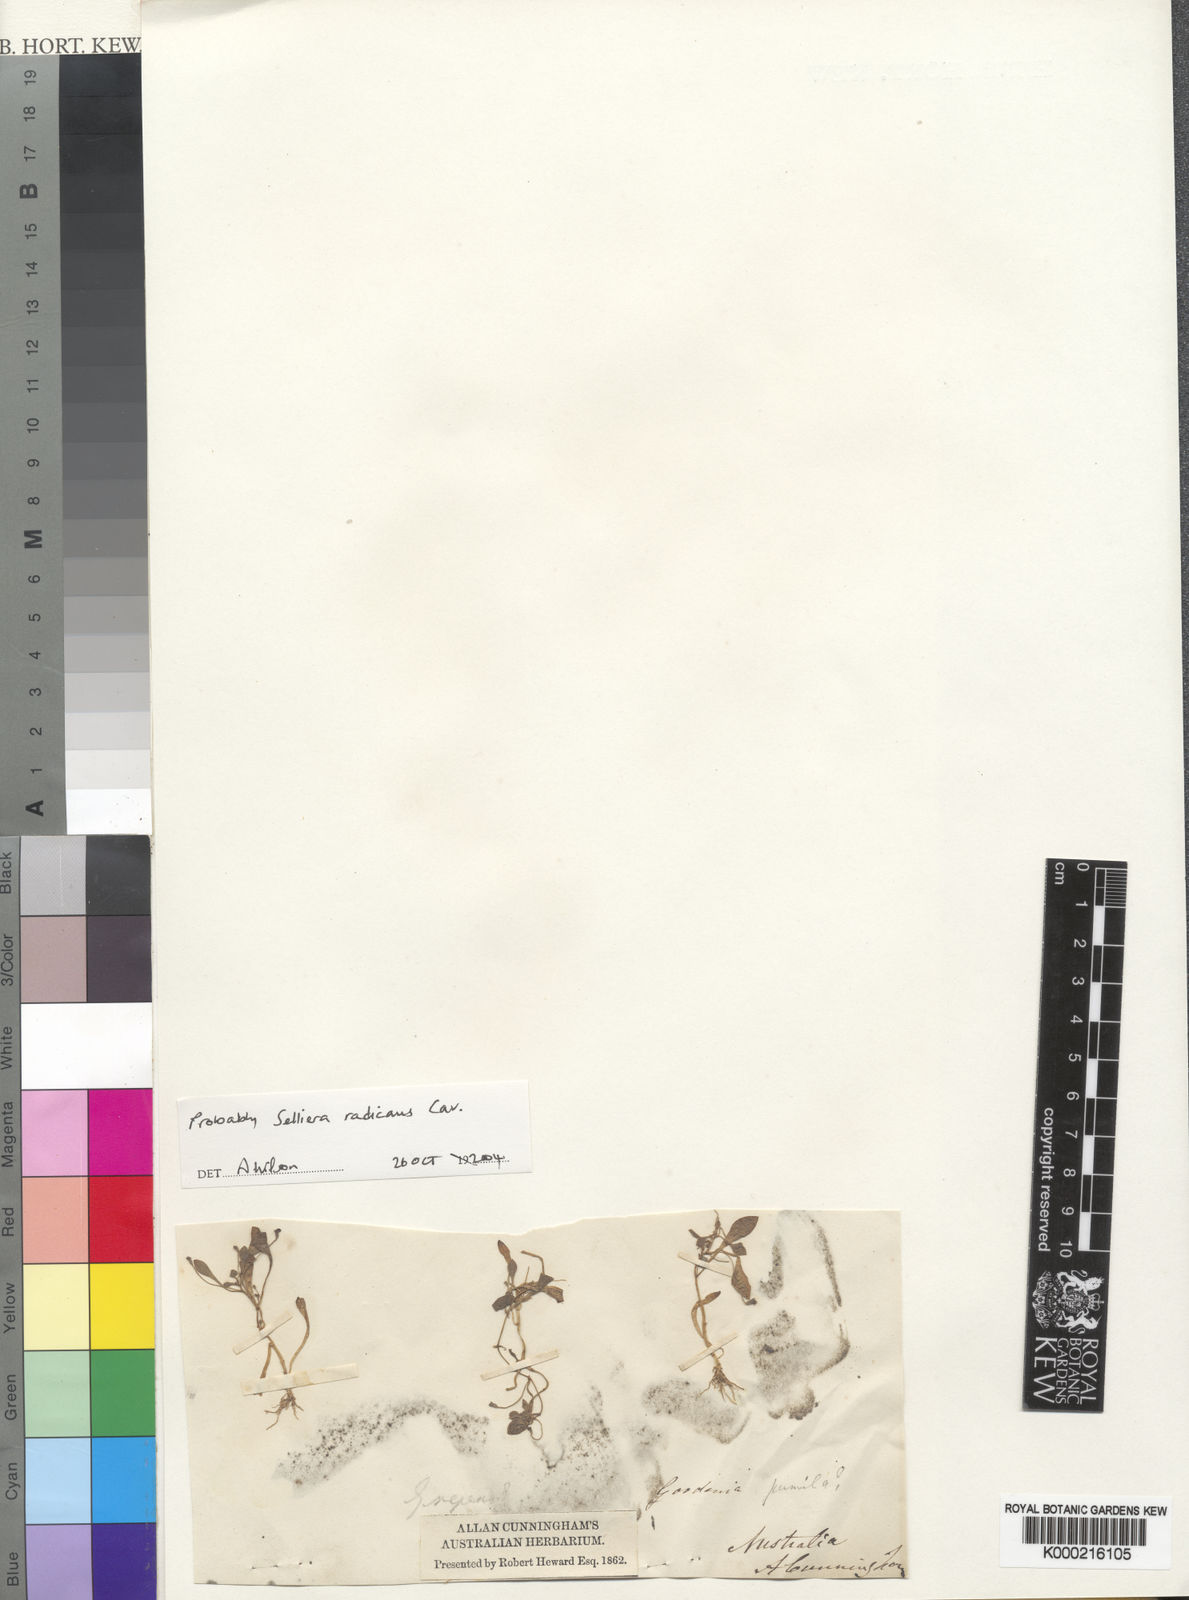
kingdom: Plantae
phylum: Tracheophyta
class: Magnoliopsida
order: Asterales
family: Goodeniaceae
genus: Goodenia
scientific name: Goodenia radicans
